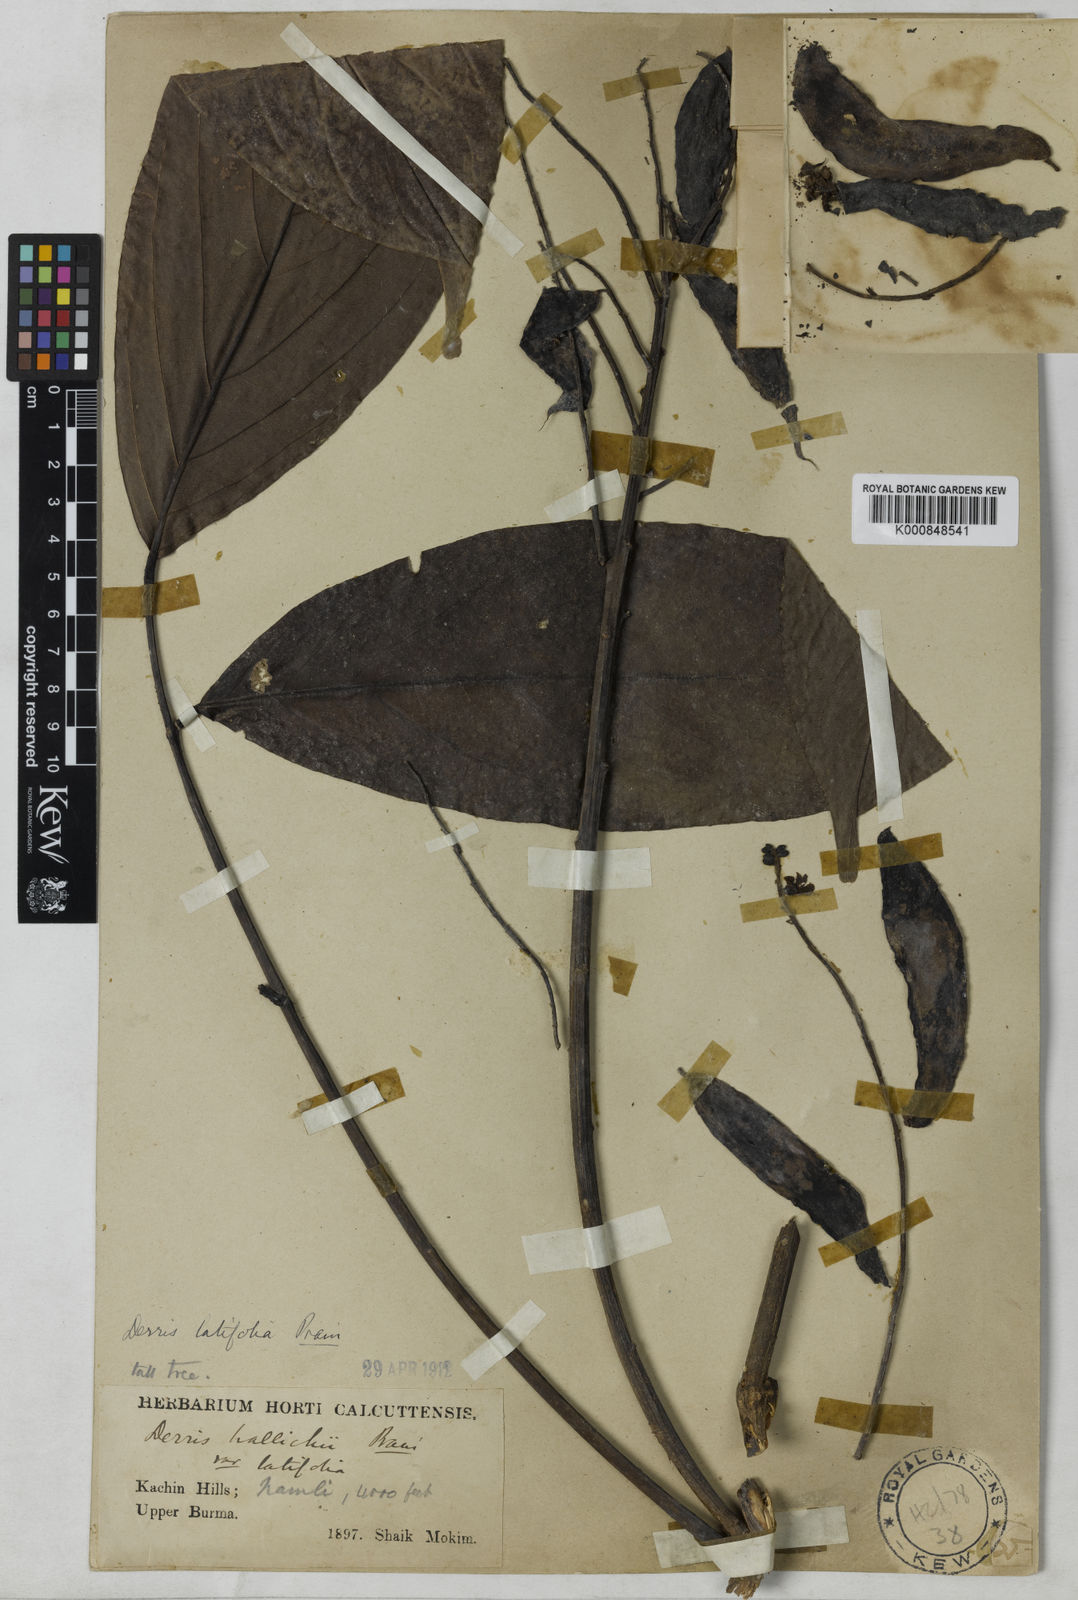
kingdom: Plantae
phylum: Tracheophyta
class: Magnoliopsida
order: Fabales
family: Fabaceae
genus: Aganope
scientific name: Aganope thyrsiflora
